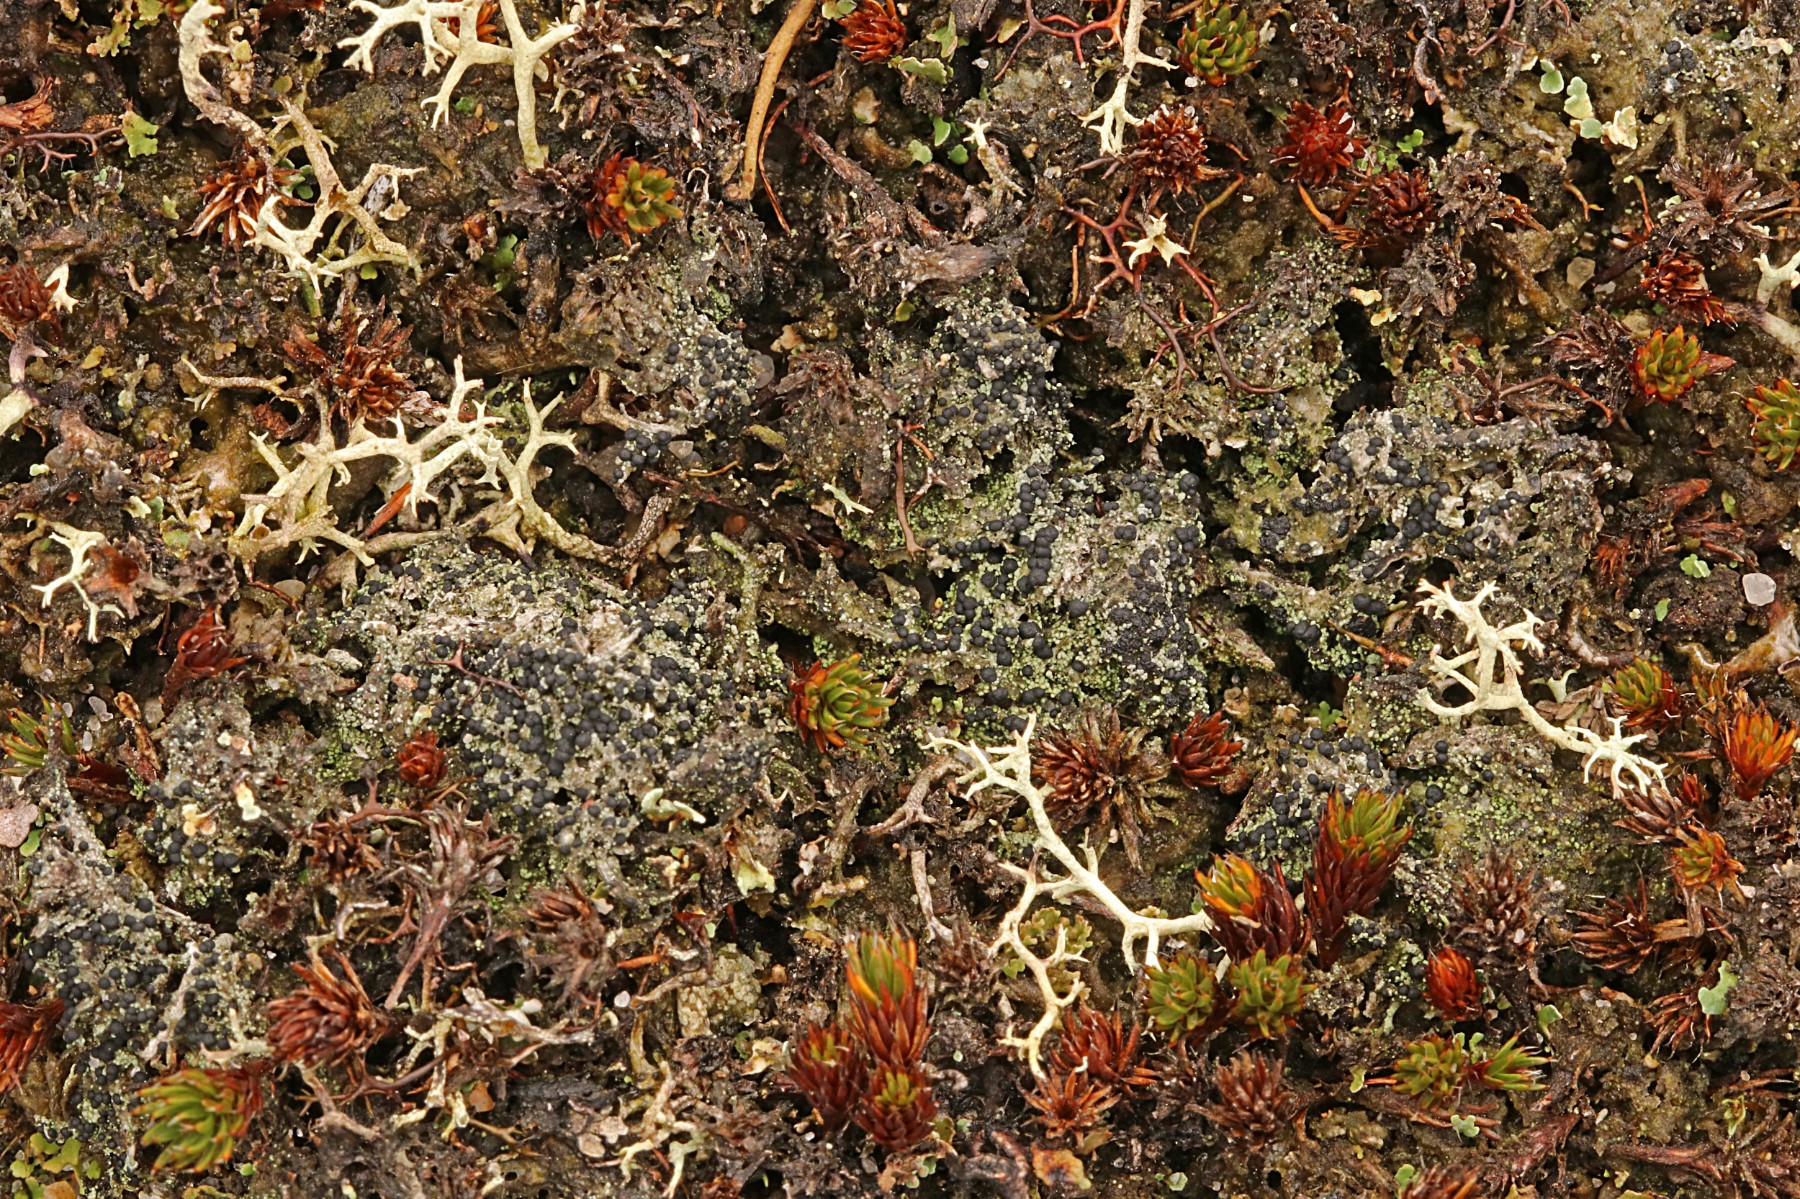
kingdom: Fungi
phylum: Ascomycota
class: Lecanoromycetes
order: Lecanorales
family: Byssolomataceae
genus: Micarea
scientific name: Micarea lignaria
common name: tørve-knaplav
